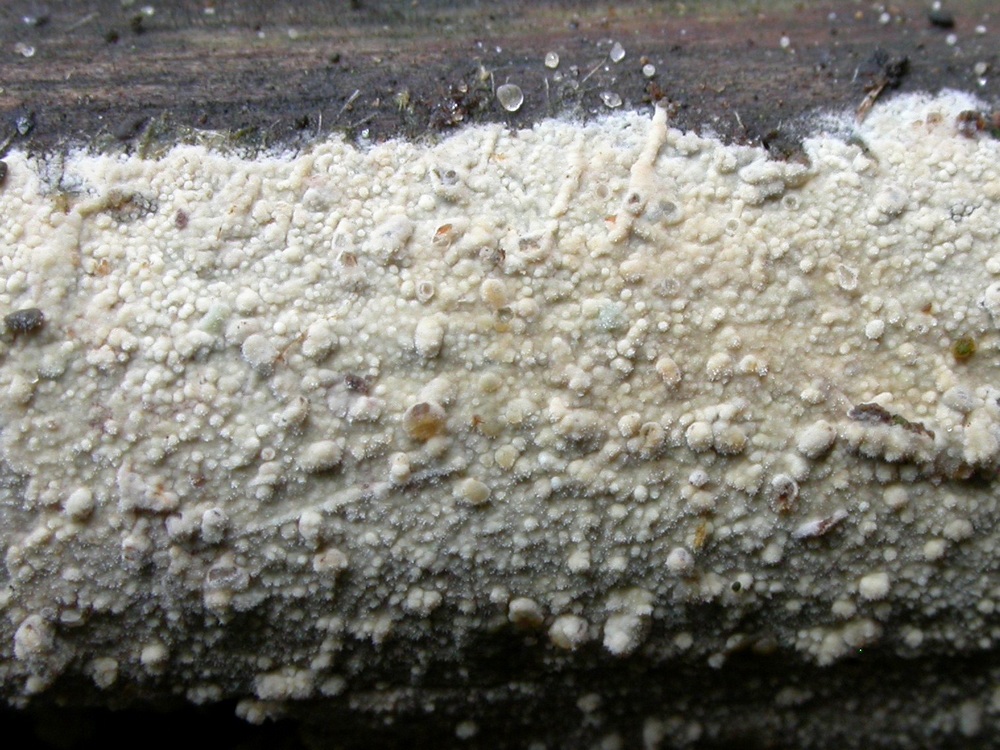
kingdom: Fungi
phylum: Basidiomycota
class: Agaricomycetes
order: Hymenochaetales
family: Hyphodontiaceae
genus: Hyphodontia
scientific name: Hyphodontia alutaria
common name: flaskerenser-nålehinde
